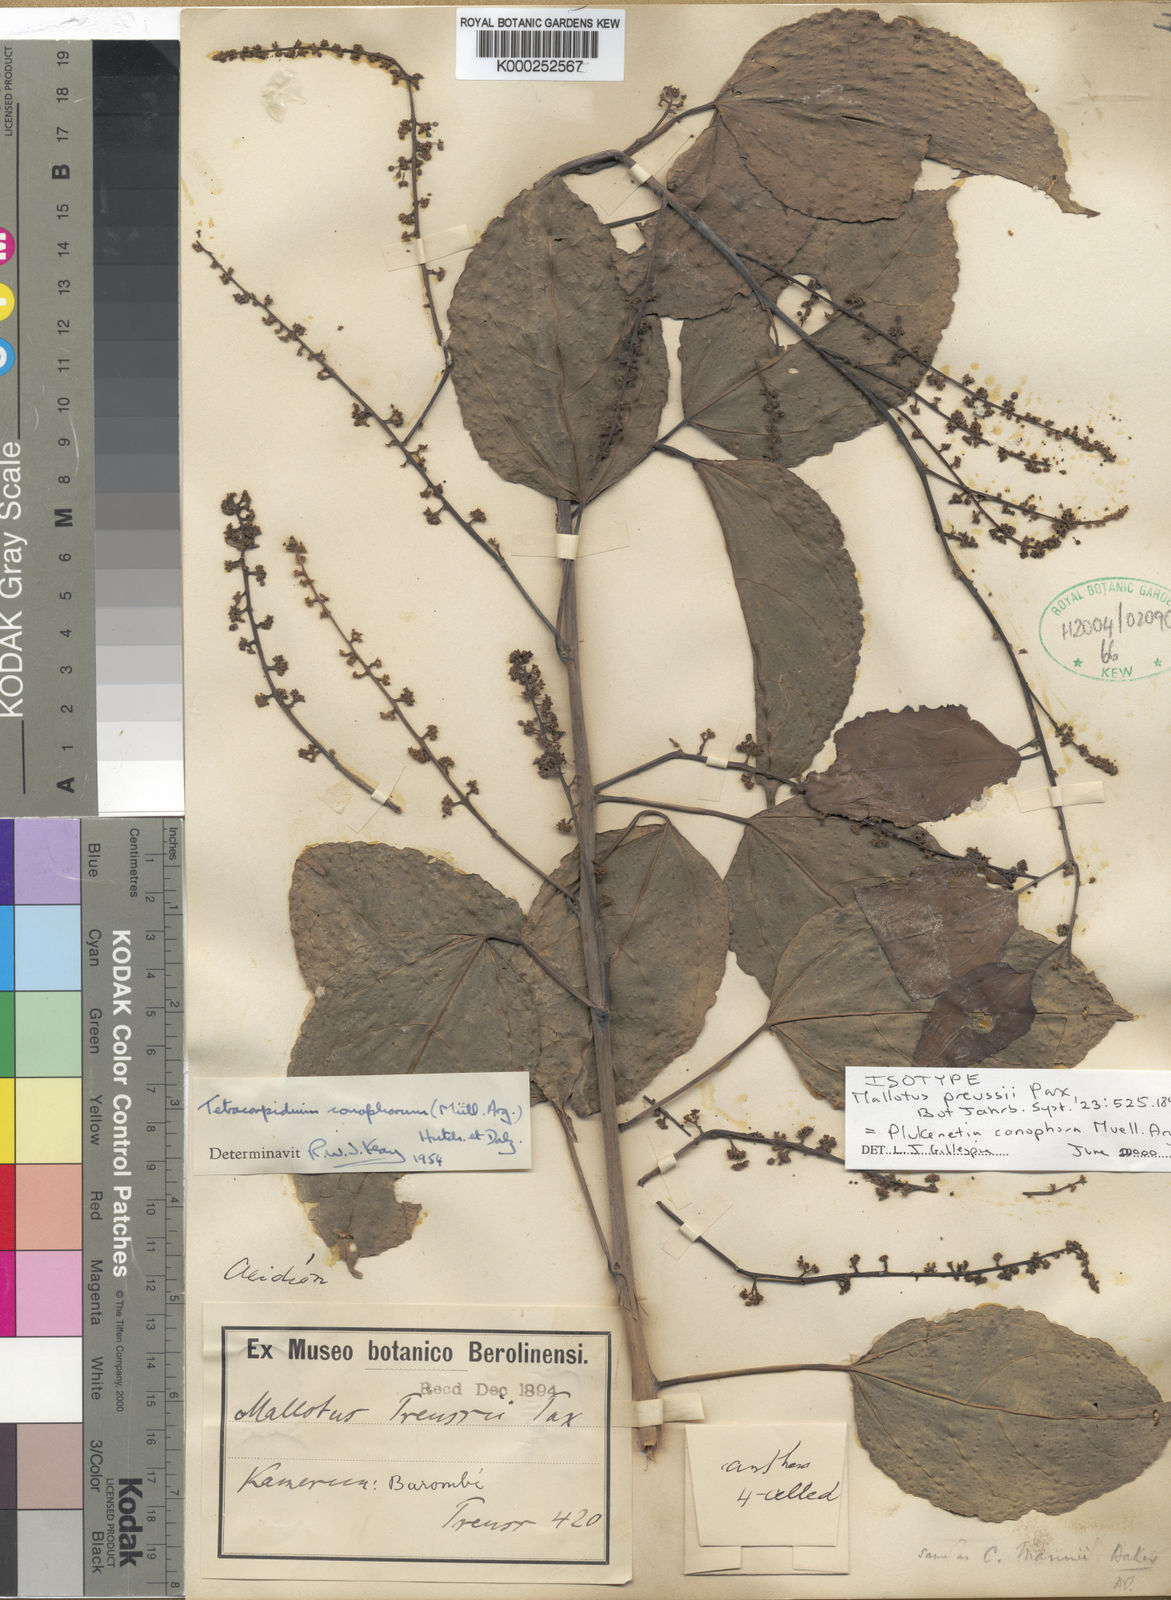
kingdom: Plantae
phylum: Tracheophyta
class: Magnoliopsida
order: Malpighiales
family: Euphorbiaceae
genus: Plukenetia
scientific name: Plukenetia conophora
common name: Owusa-nut
